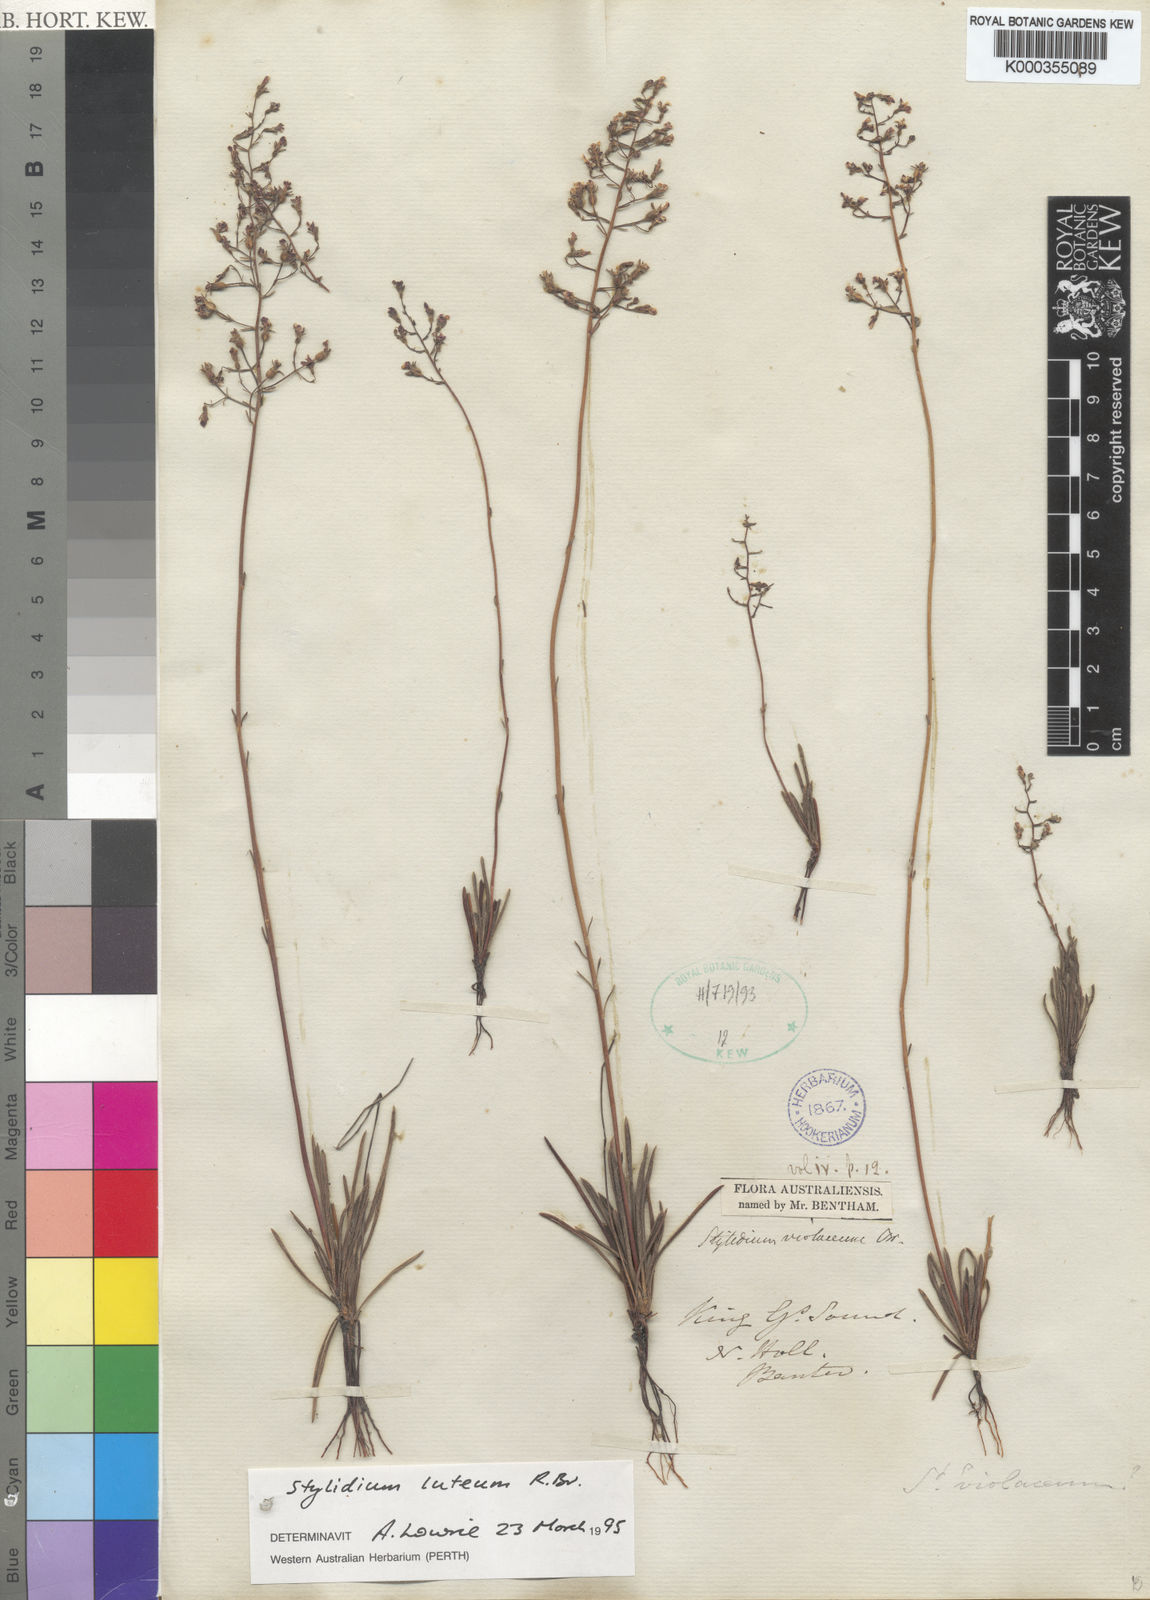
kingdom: Plantae
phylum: Tracheophyta
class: Magnoliopsida
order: Asterales
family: Stylidiaceae
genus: Stylidium
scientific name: Stylidium luteum
